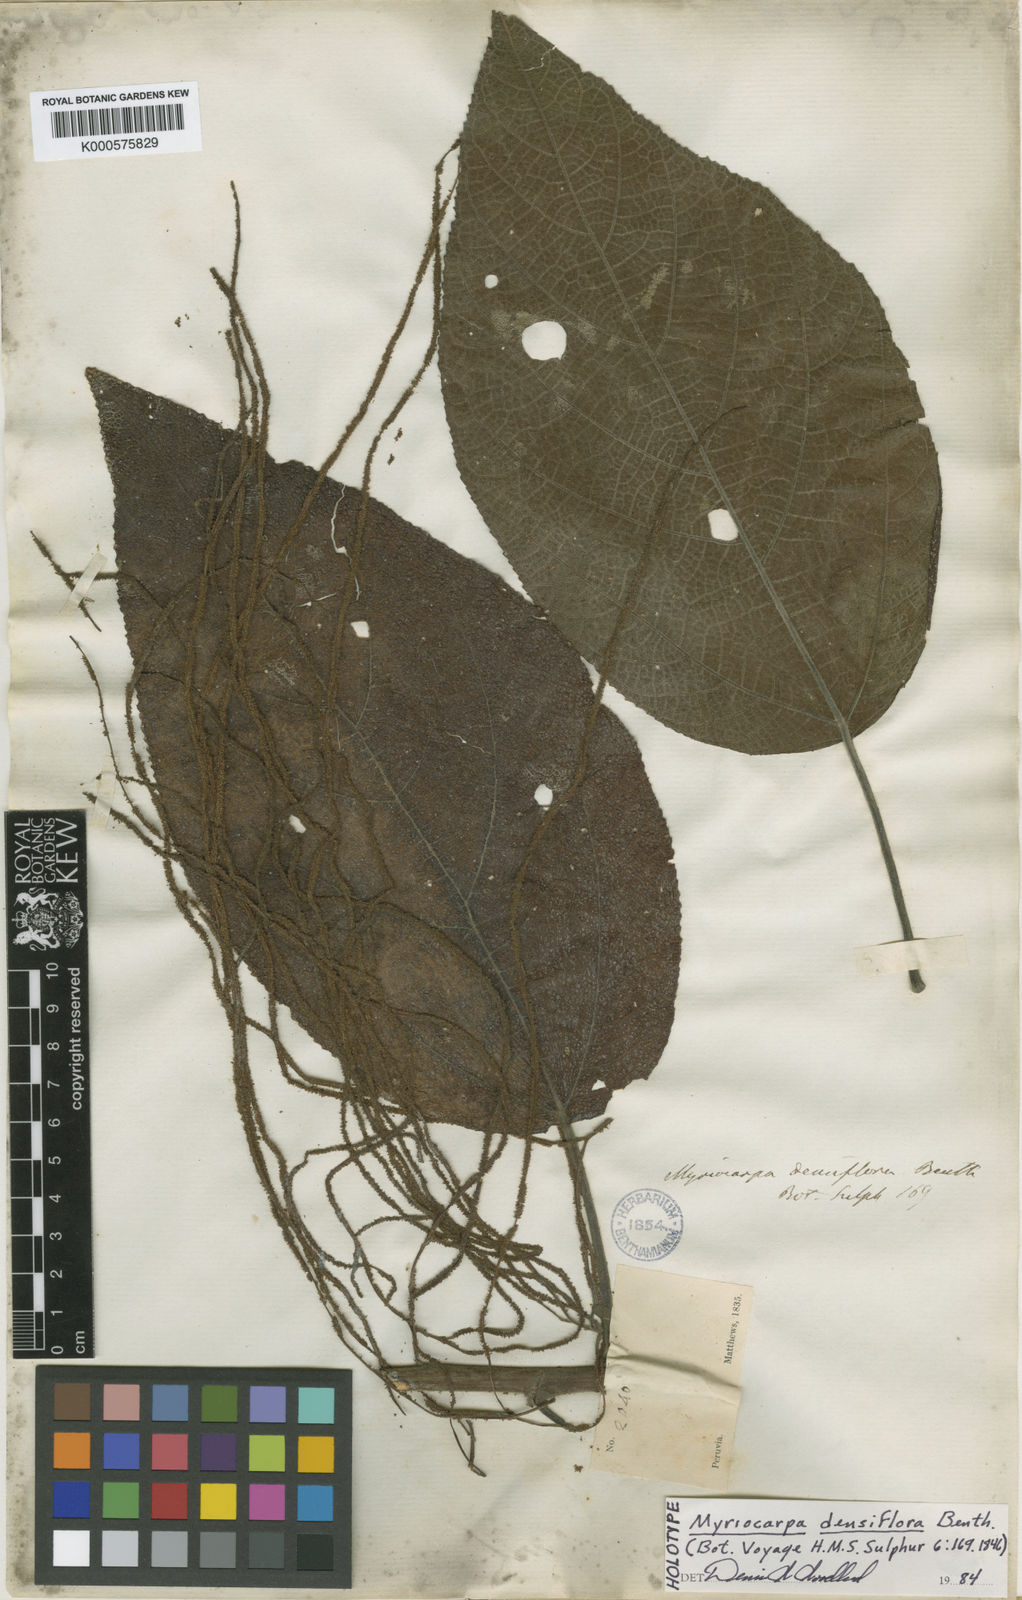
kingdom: Plantae
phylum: Tracheophyta
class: Magnoliopsida
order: Rosales
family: Urticaceae
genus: Myriocarpa
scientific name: Myriocarpa stipitata
